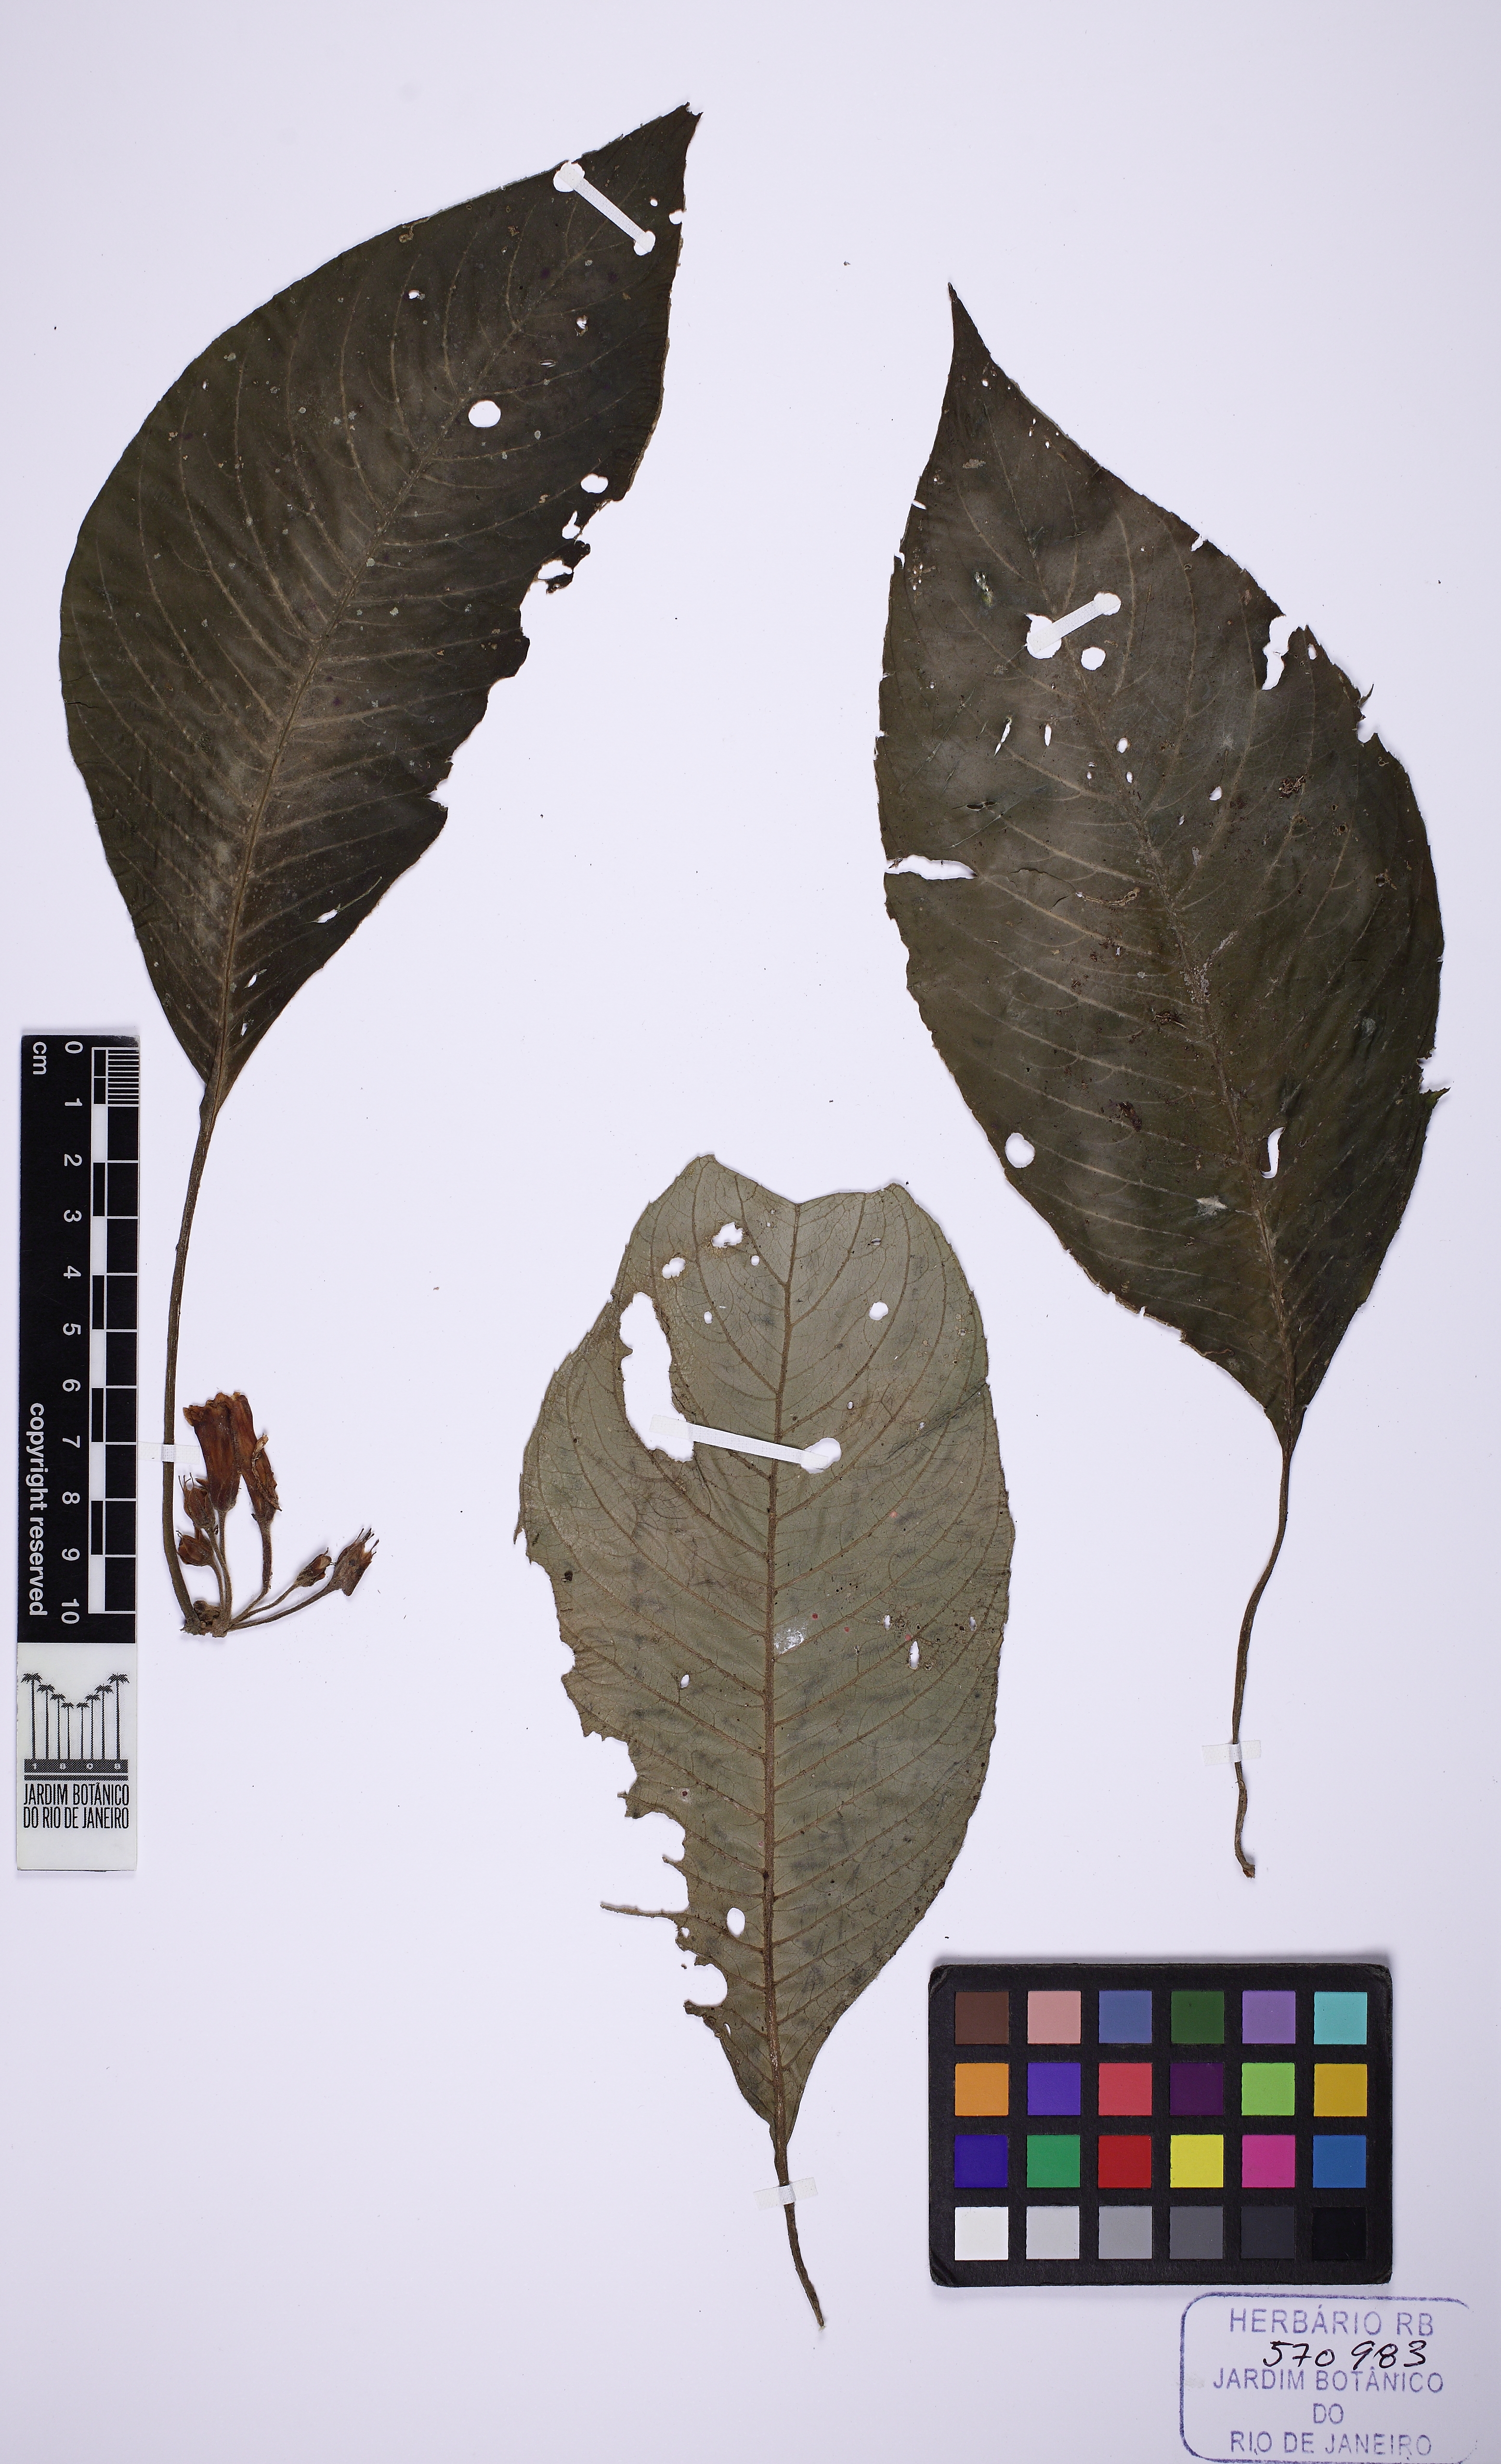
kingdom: Plantae
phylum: Tracheophyta
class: Magnoliopsida
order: Lamiales
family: Gesneriaceae
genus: Besleria
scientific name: Besleria longimucronata
